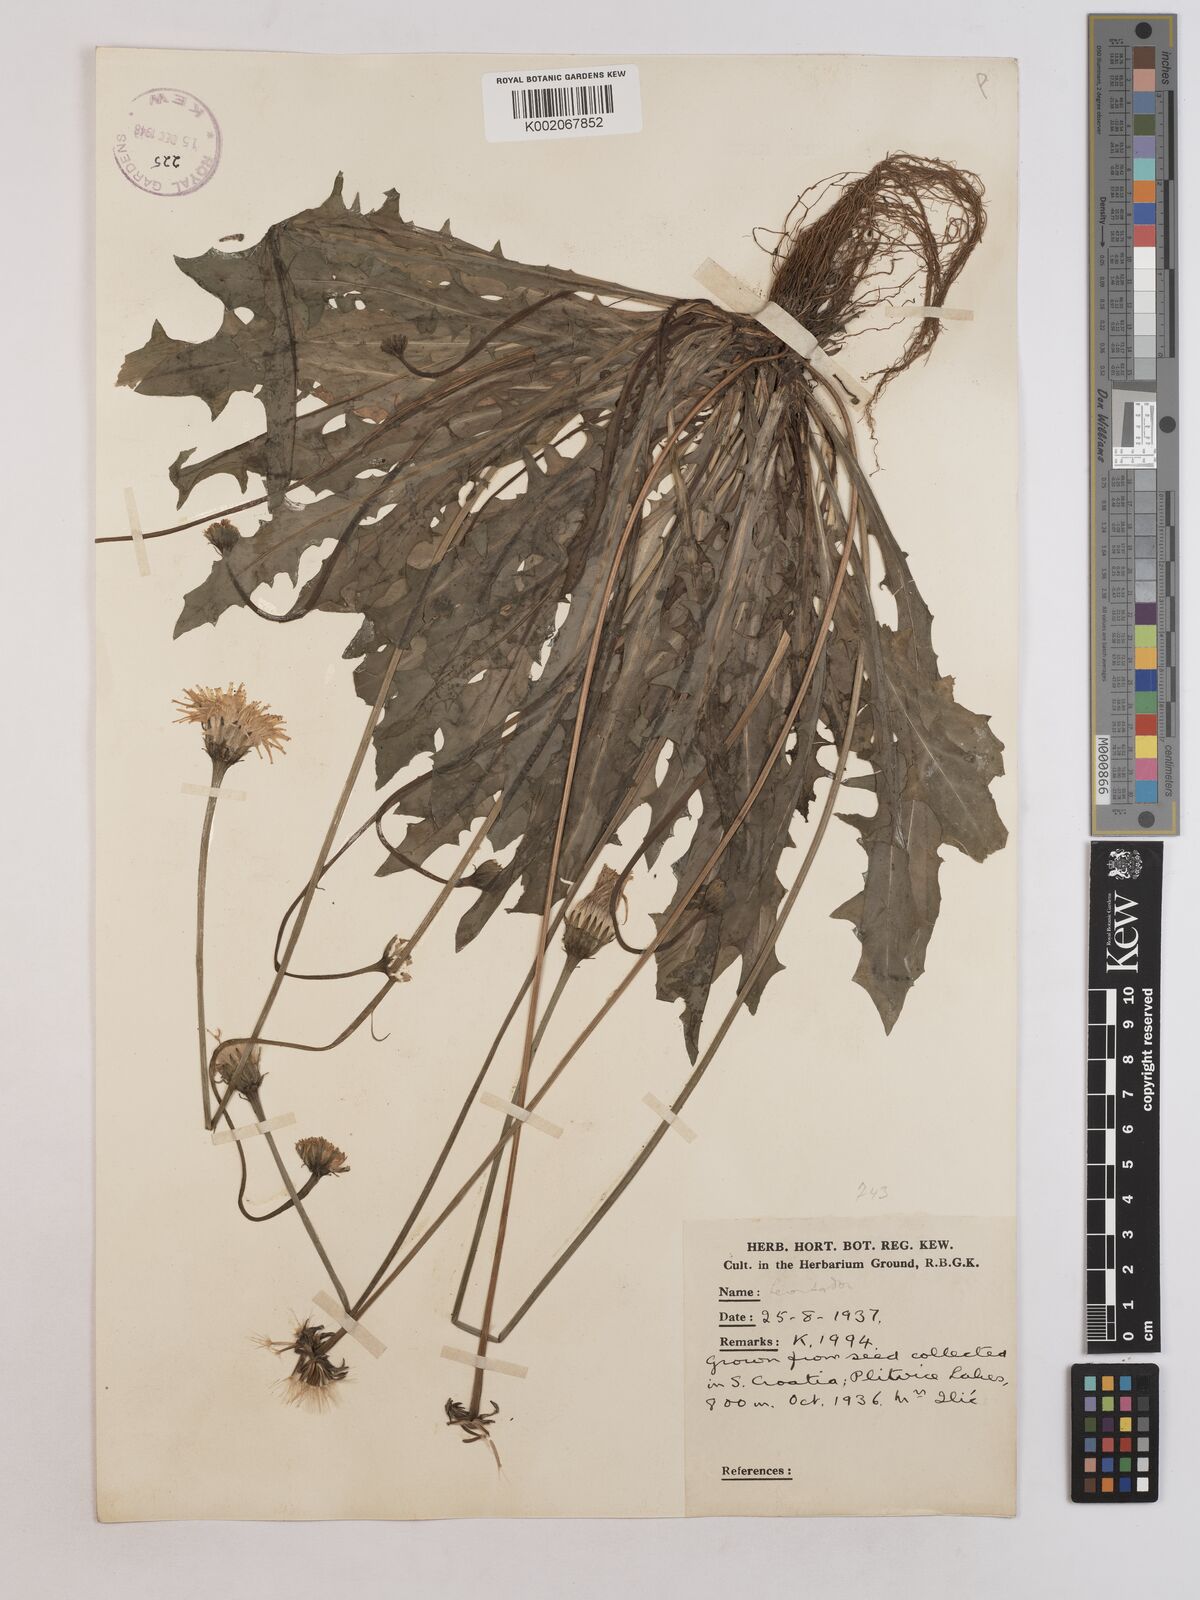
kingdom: Plantae
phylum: Tracheophyta
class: Magnoliopsida
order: Asterales
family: Asteraceae
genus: Leontodon
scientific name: Leontodon crispus
